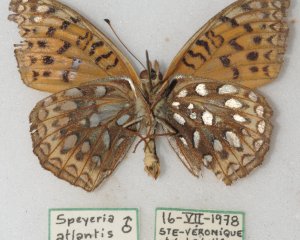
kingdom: Animalia
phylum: Arthropoda
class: Insecta
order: Lepidoptera
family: Nymphalidae
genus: Speyeria
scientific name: Speyeria atlantis
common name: Atlantis Fritillary
